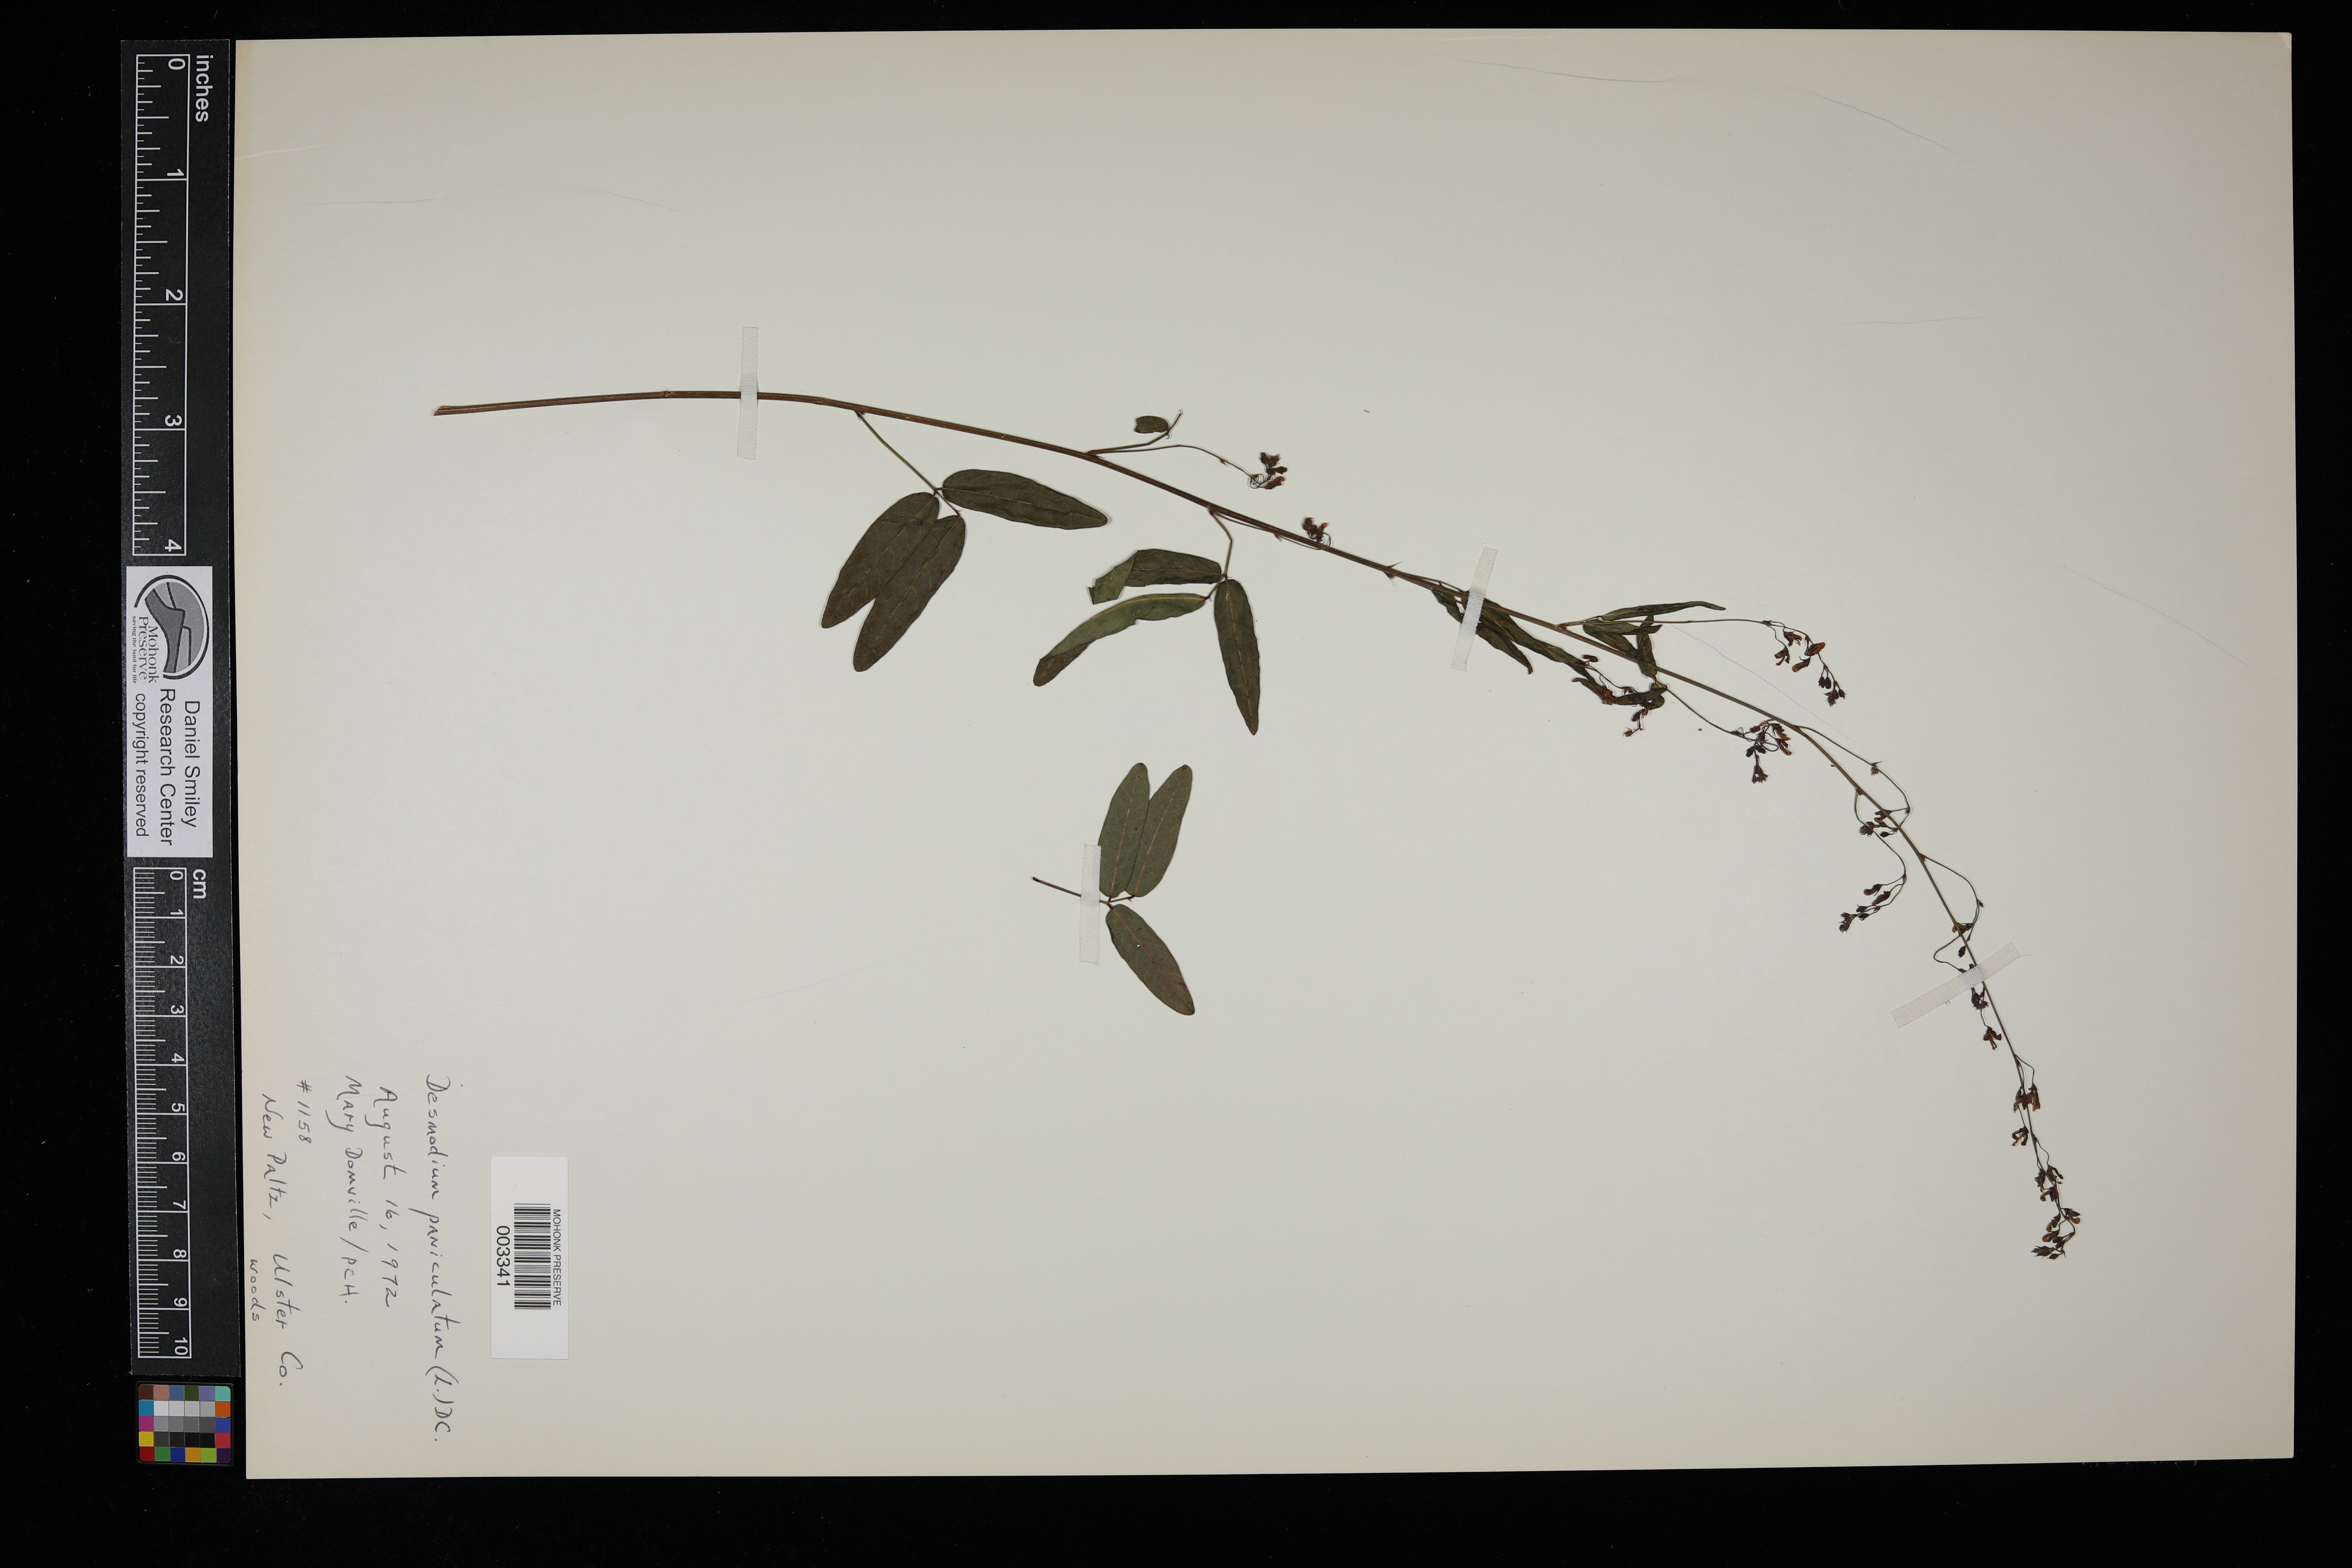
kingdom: Plantae
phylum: Tracheophyta
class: Magnoliopsida
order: Fabales
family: Fabaceae
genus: Desmodium
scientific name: Desmodium paniculatum
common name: Panicled tick-clover
